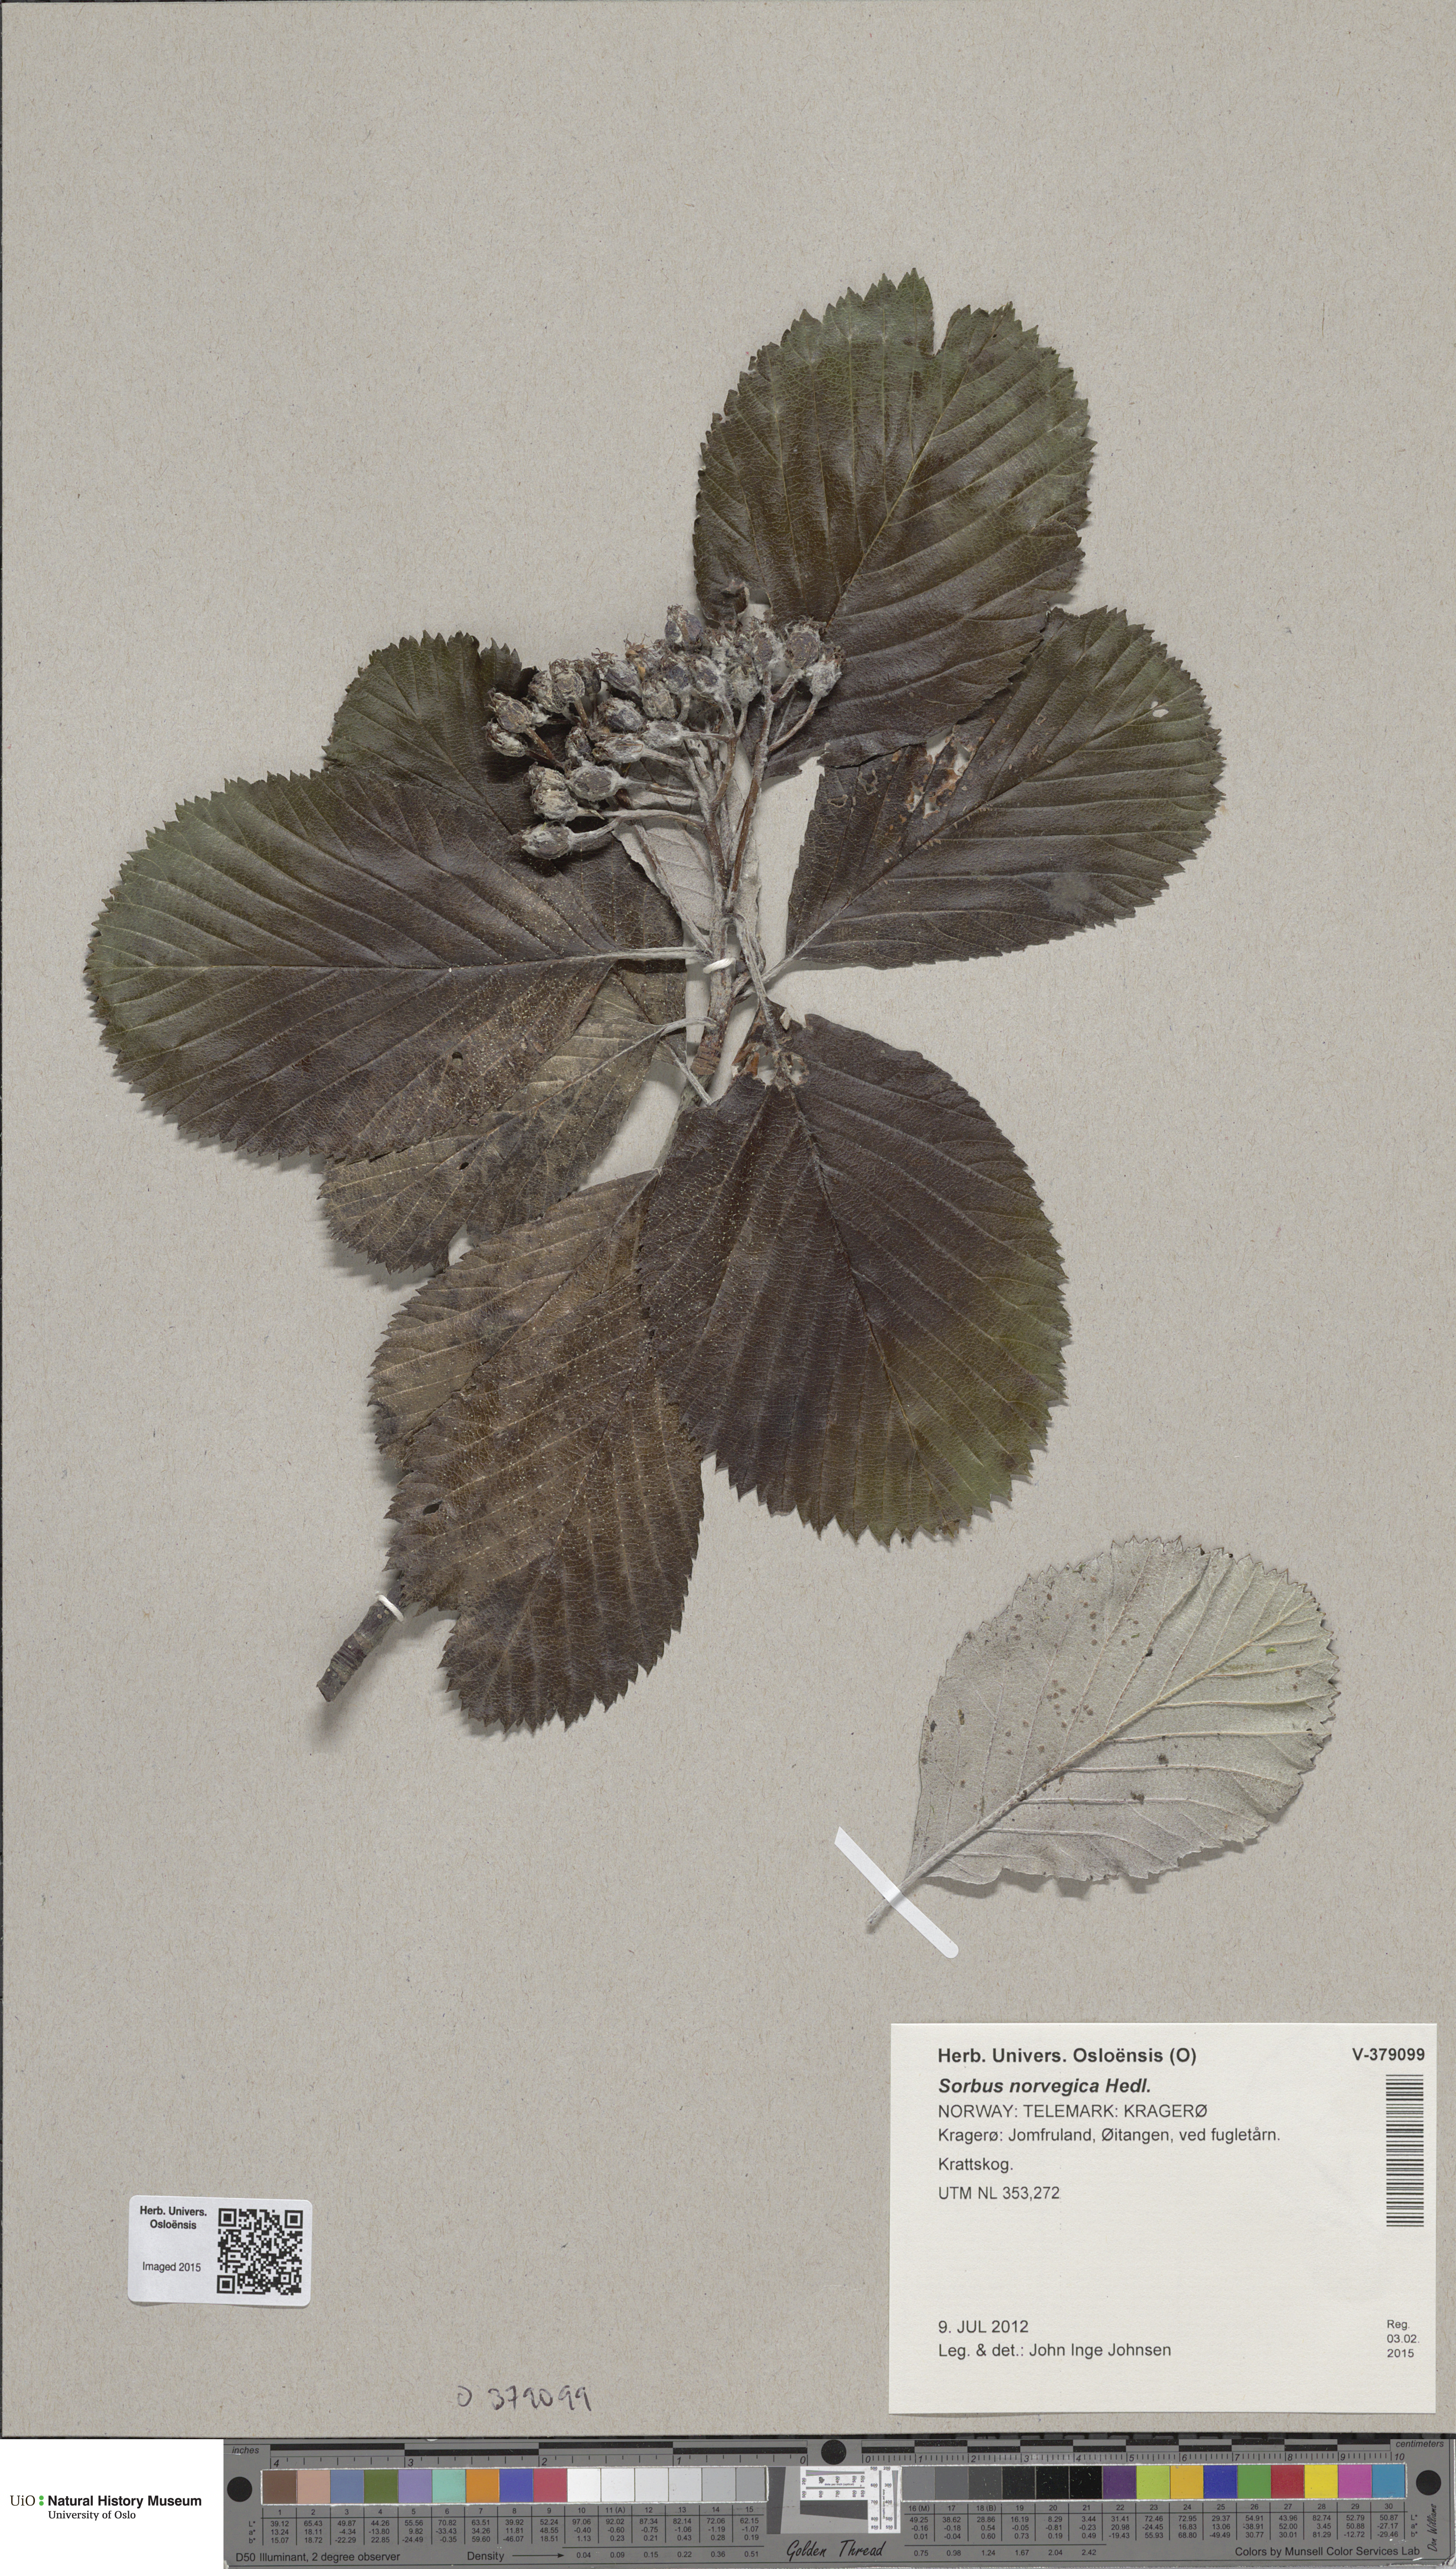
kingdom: Plantae
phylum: Tracheophyta
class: Magnoliopsida
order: Rosales
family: Rosaceae
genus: Aria
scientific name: Aria obtusifolia
